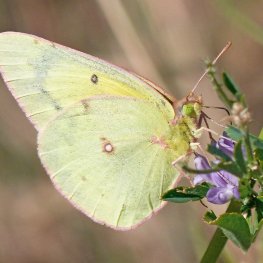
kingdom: Animalia
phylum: Arthropoda
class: Insecta
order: Lepidoptera
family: Pieridae
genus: Colias
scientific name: Colias philodice
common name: Clouded Sulphur
